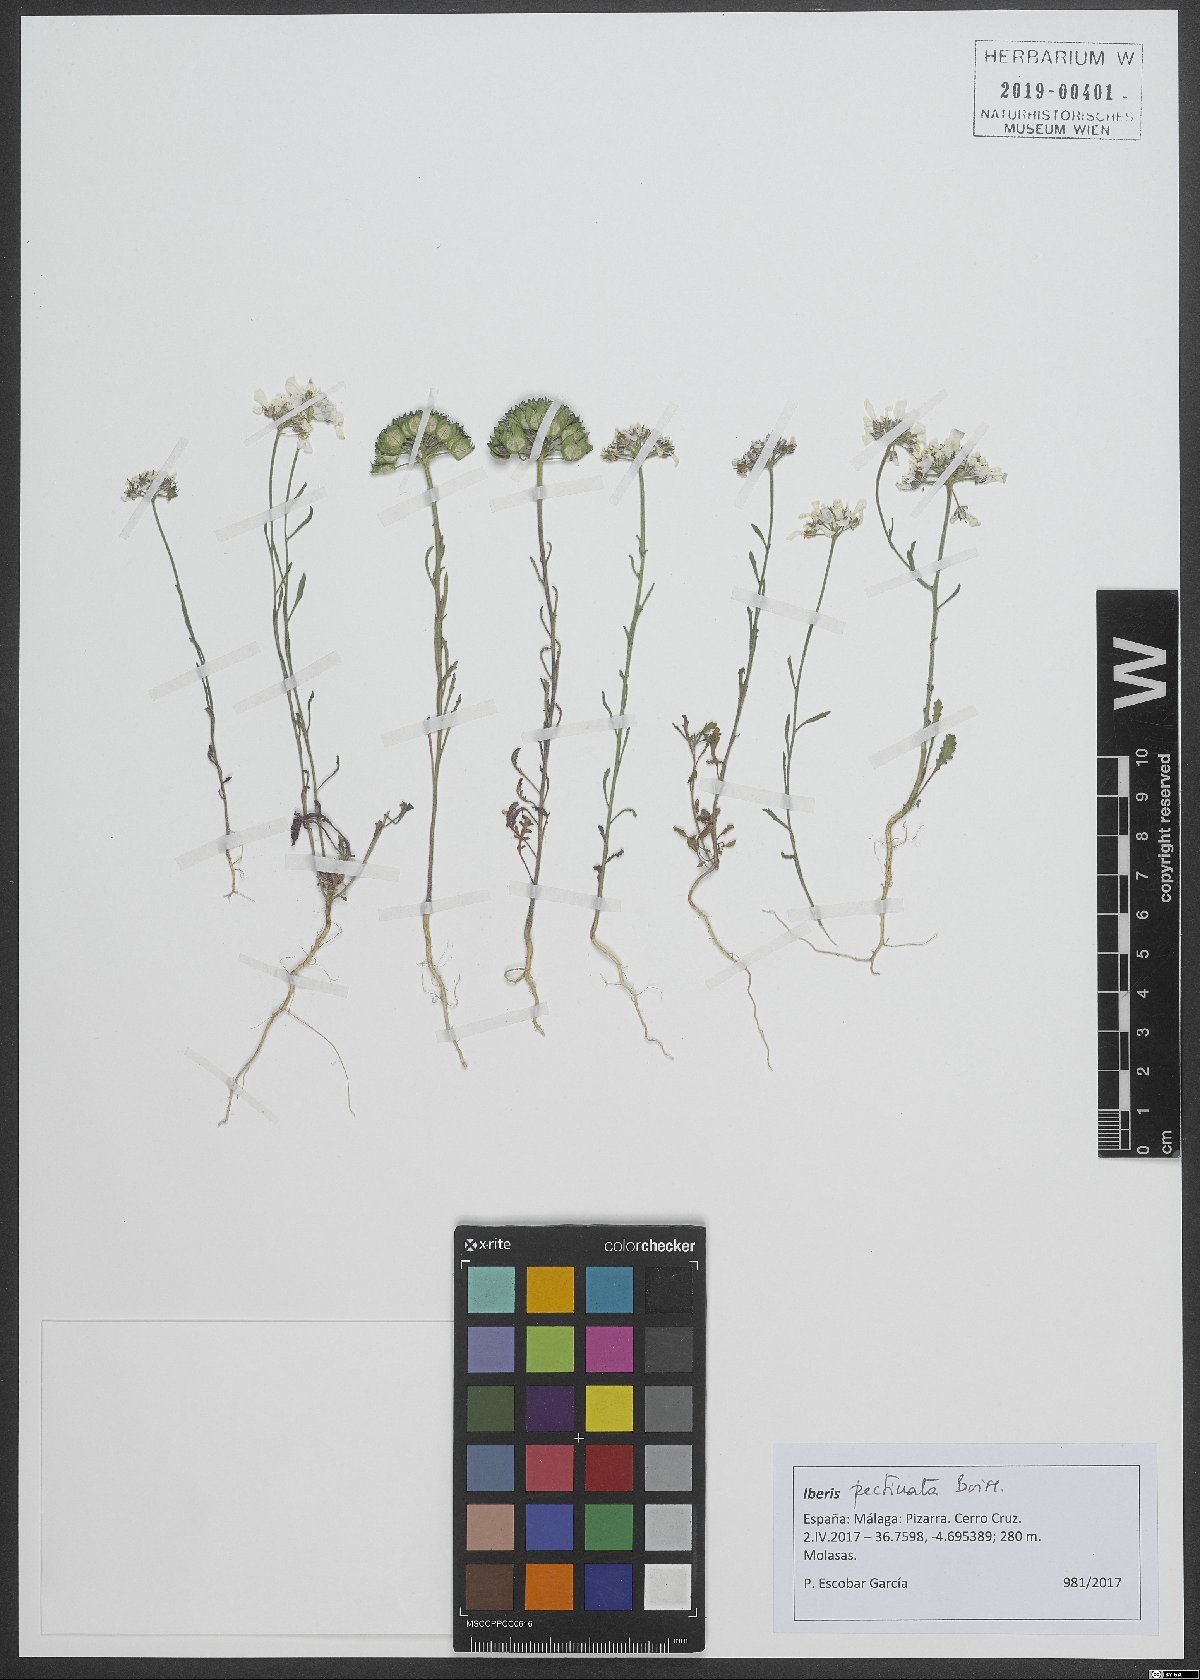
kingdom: Plantae
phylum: Tracheophyta
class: Magnoliopsida
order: Brassicales
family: Brassicaceae
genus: Iberis
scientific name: Iberis pectinata
